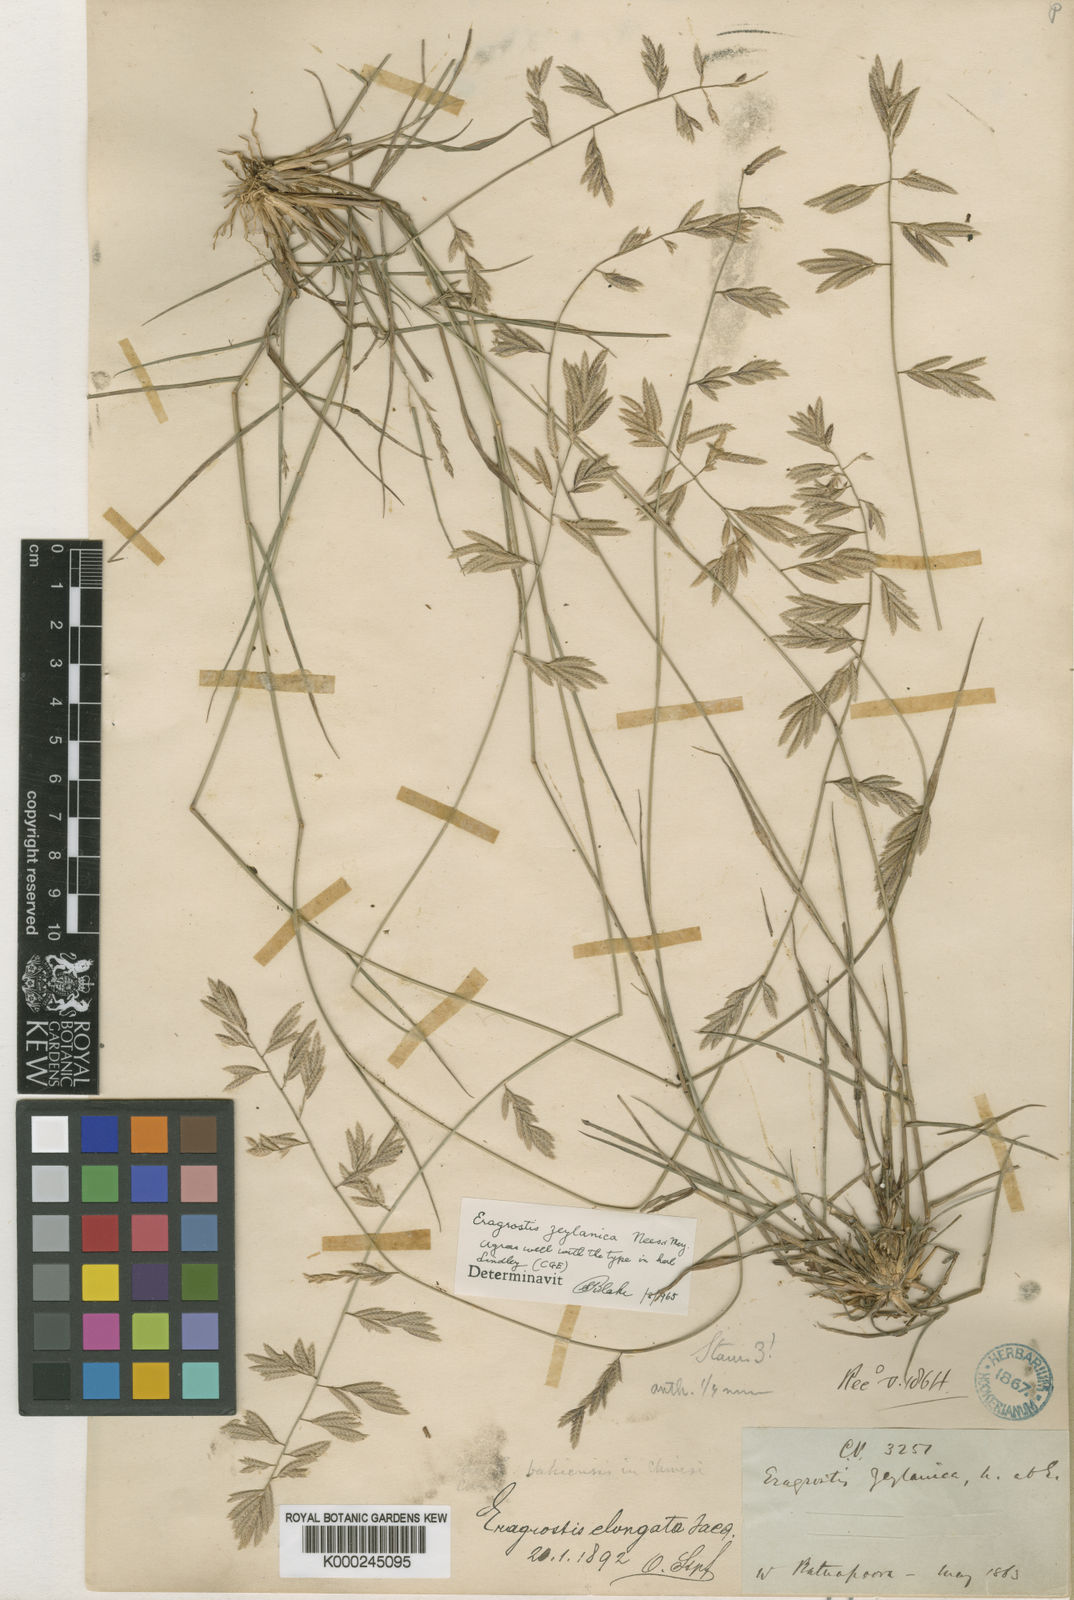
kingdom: Plantae
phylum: Tracheophyta
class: Liliopsida
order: Poales
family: Poaceae
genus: Eragrostis
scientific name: Eragrostis zeylanica
